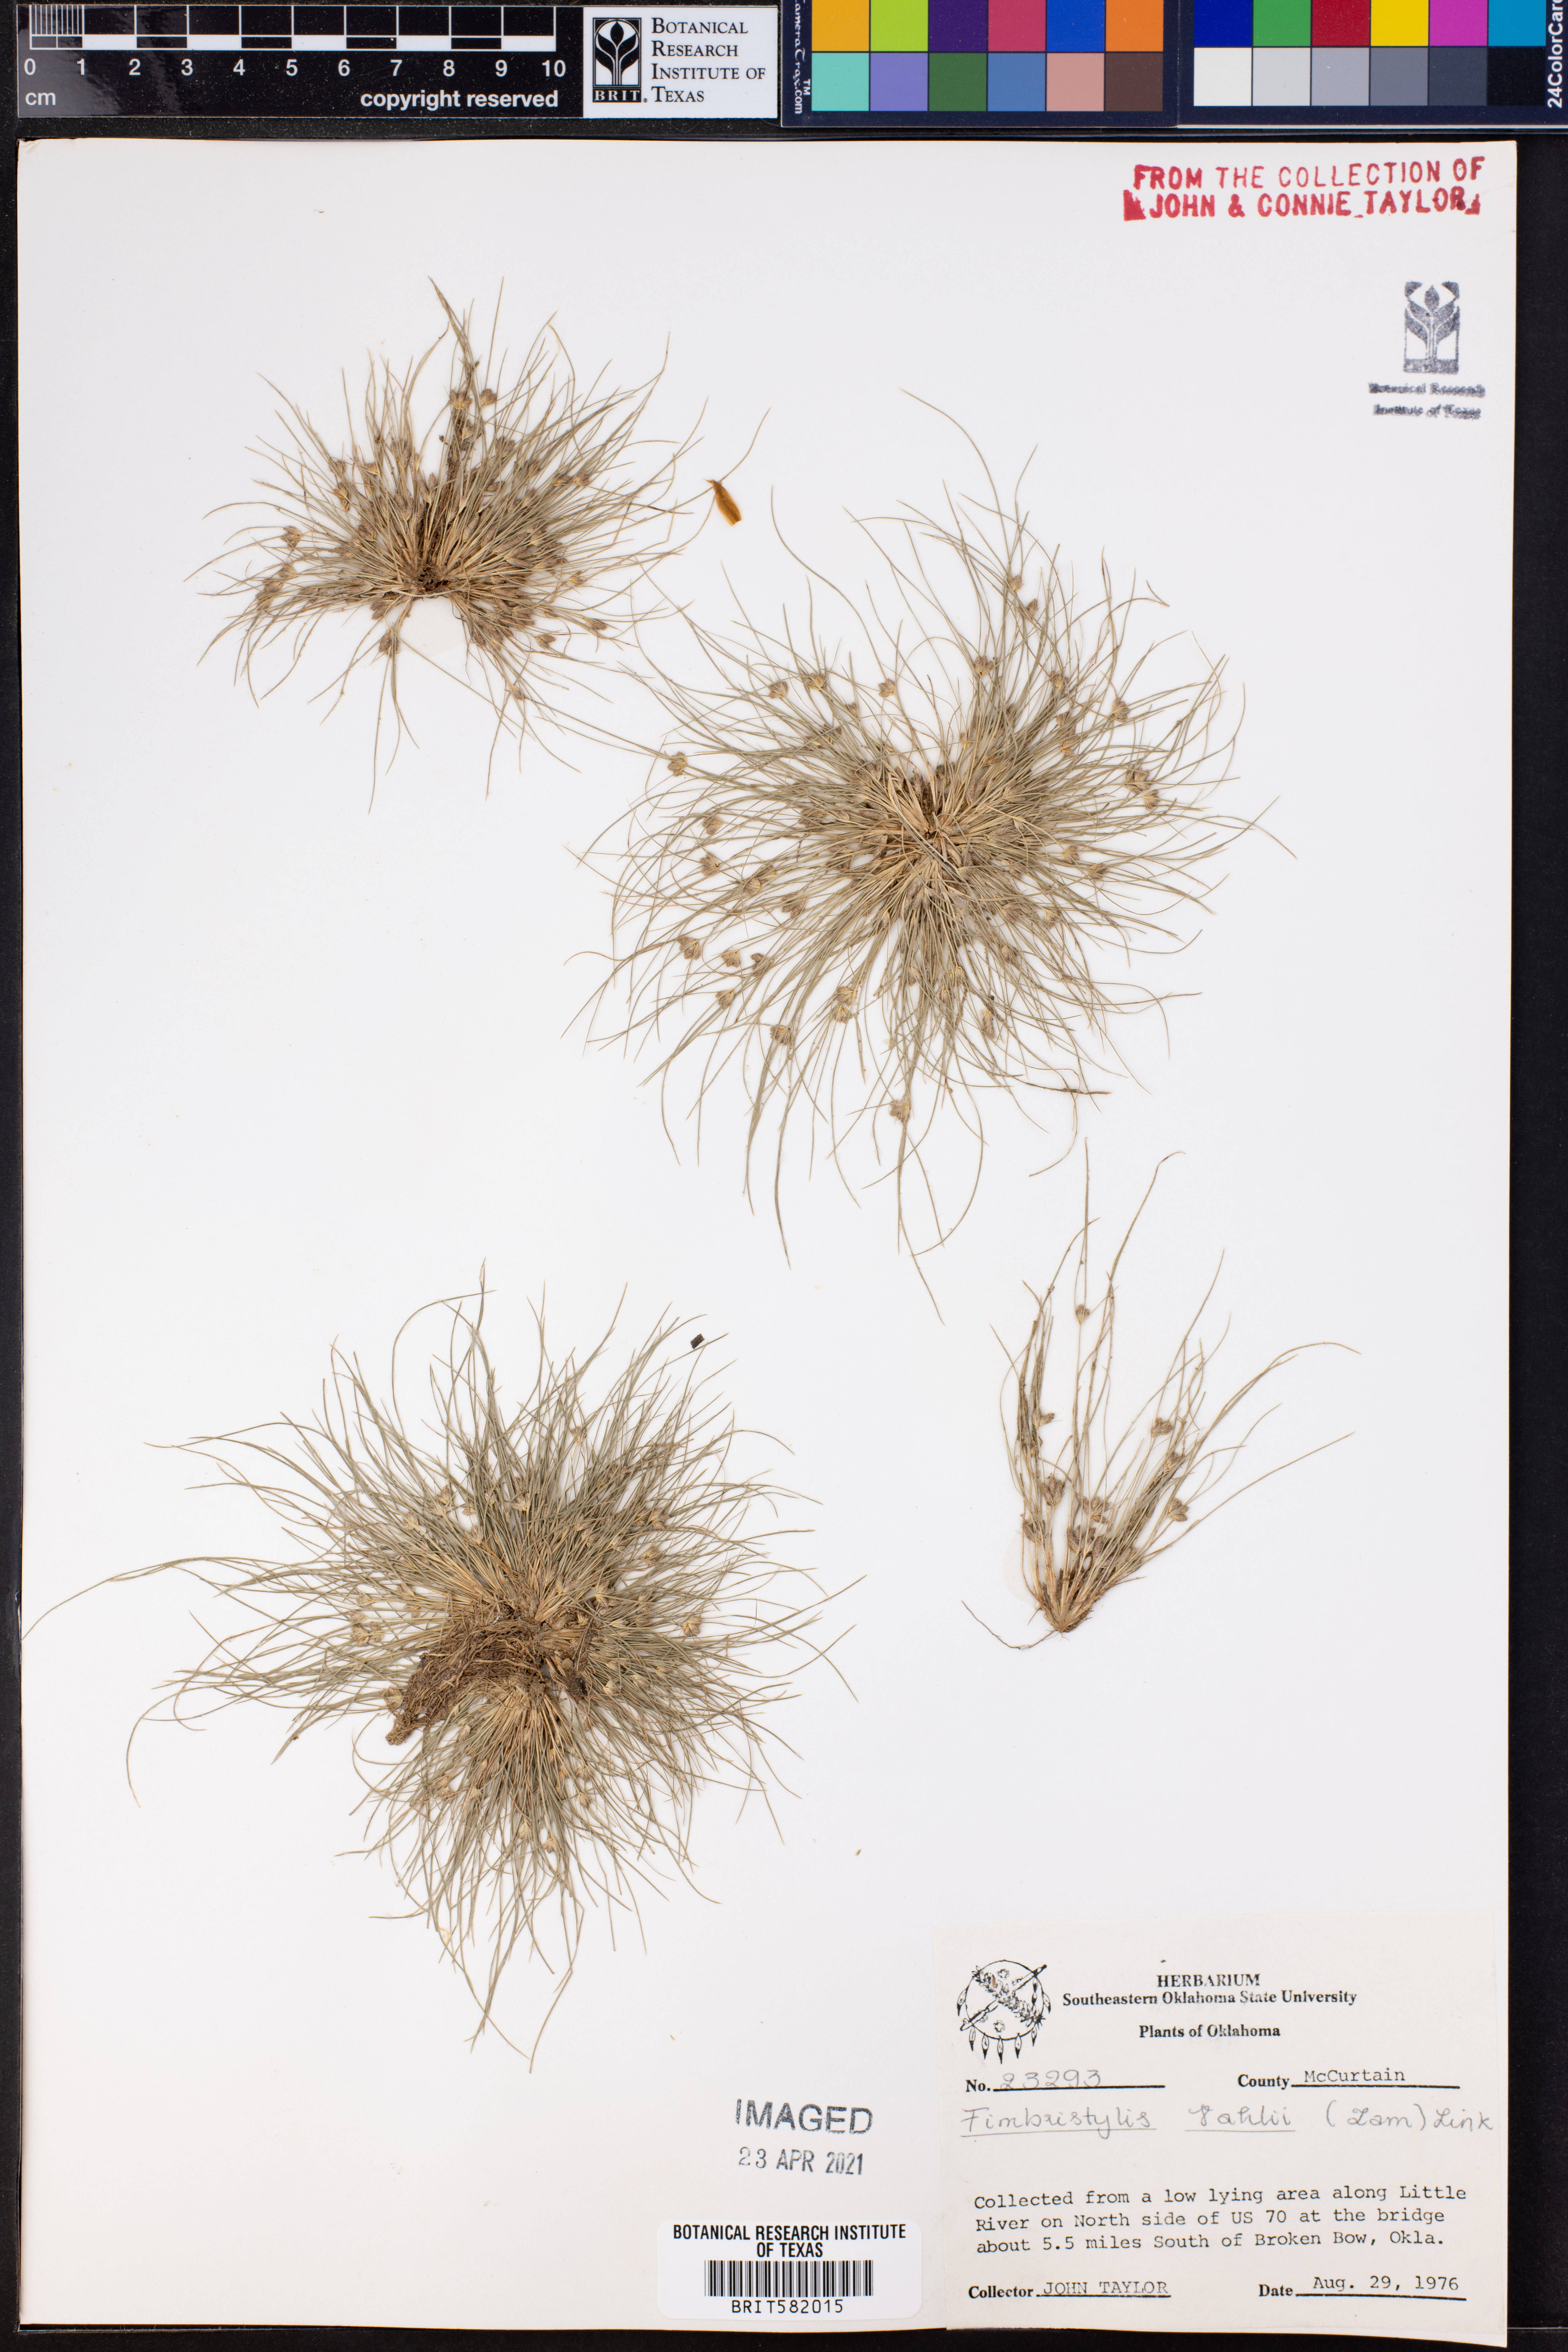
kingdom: Plantae
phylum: Tracheophyta
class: Liliopsida
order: Poales
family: Cyperaceae
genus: Fimbristylis
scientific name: Fimbristylis vahlii
